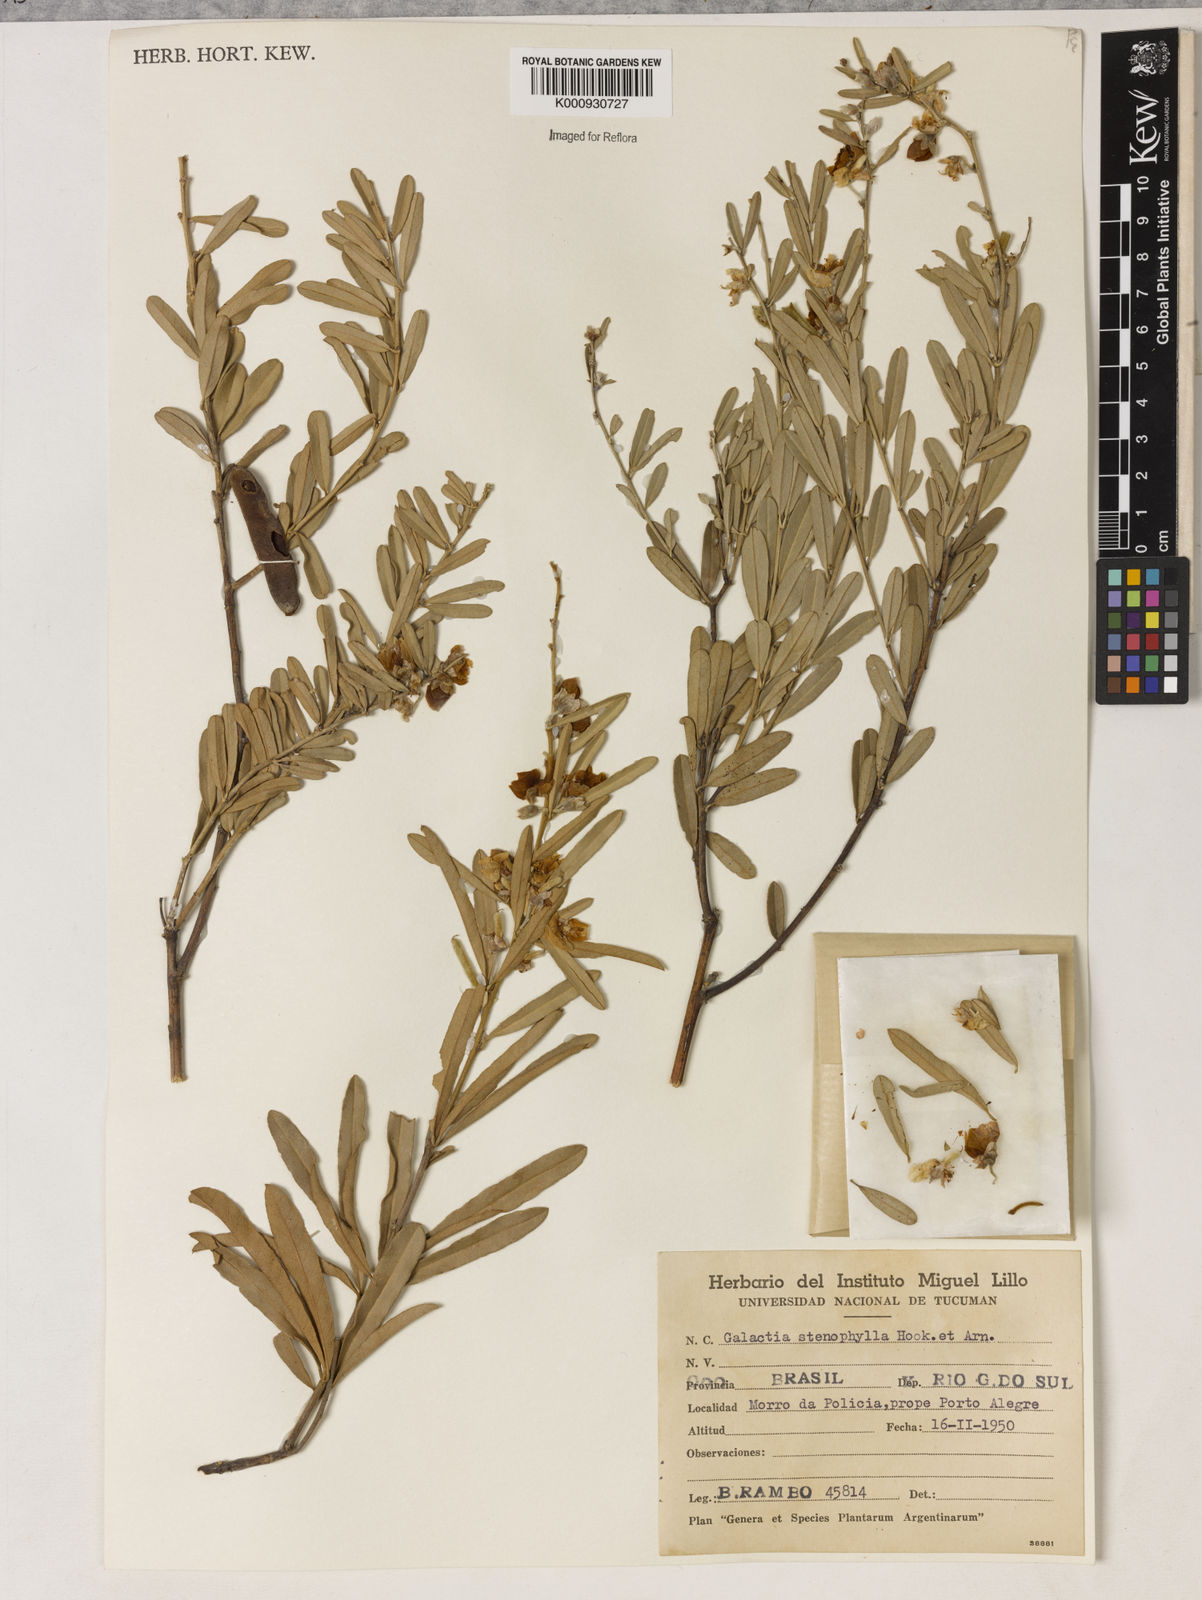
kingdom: Plantae
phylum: Tracheophyta
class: Liliopsida
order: Asparagales
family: Orchidaceae
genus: Pelexia
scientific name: Pelexia
